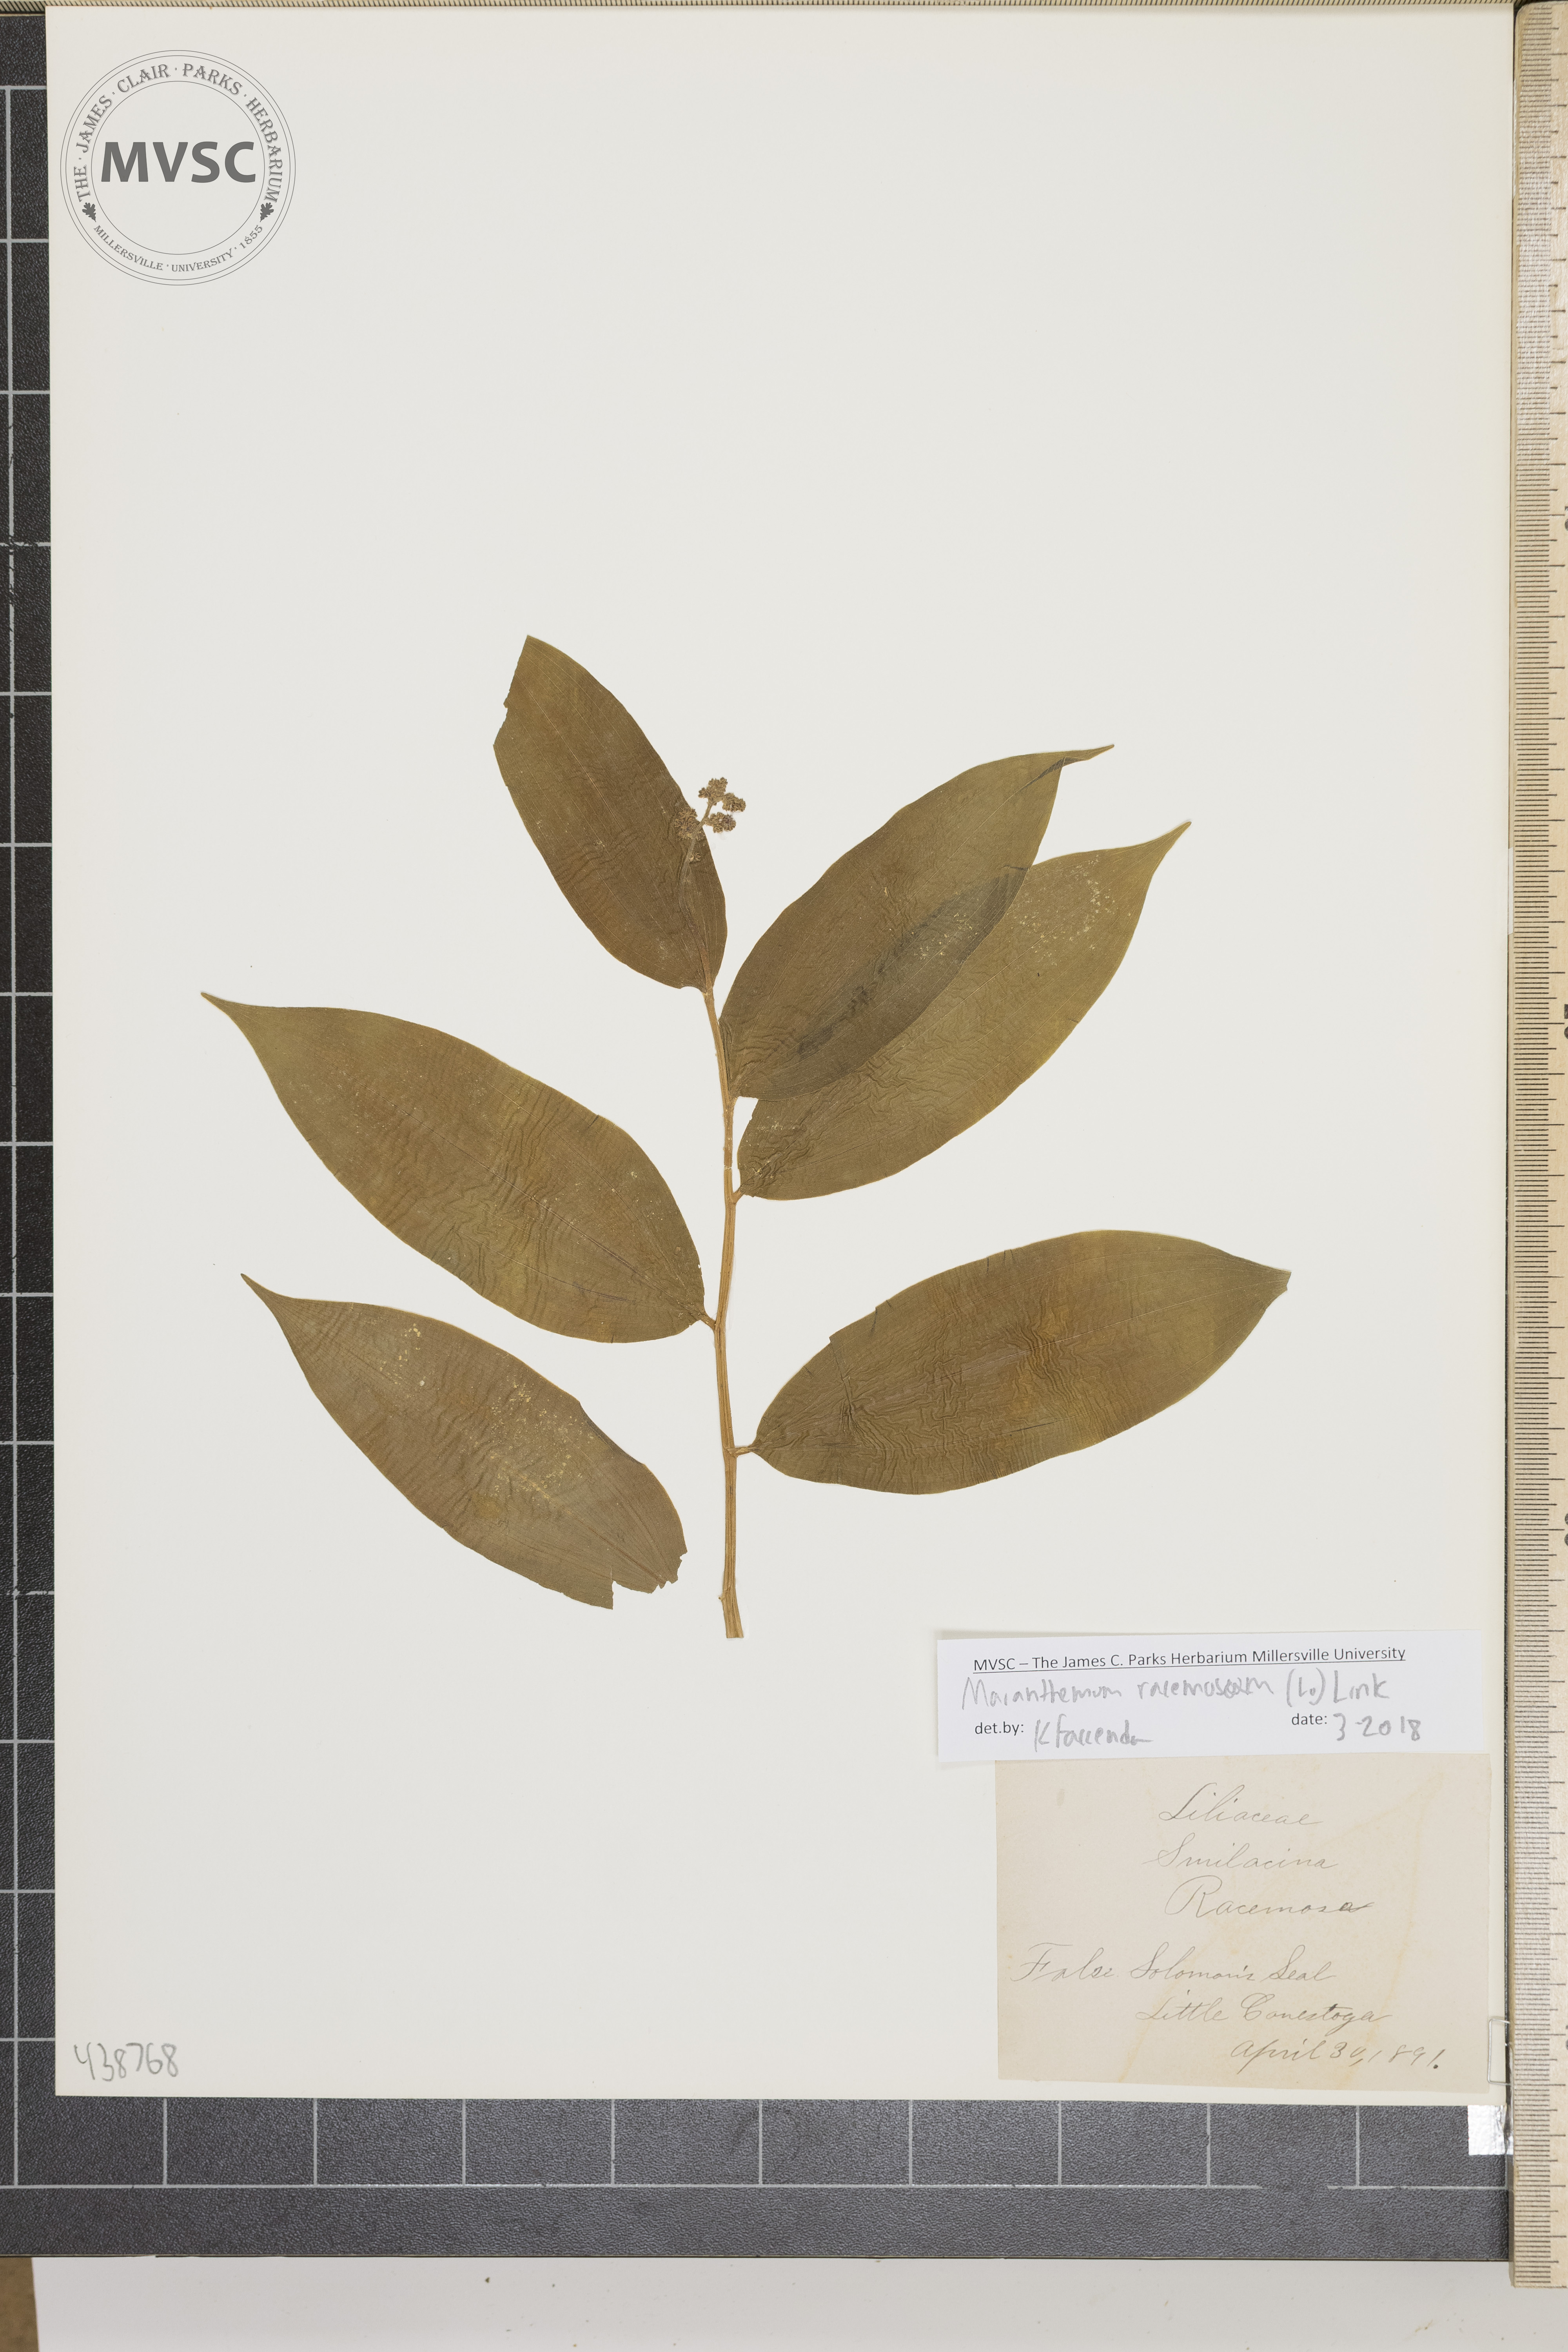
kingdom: Plantae
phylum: Tracheophyta
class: Liliopsida
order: Asparagales
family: Asparagaceae
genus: Maianthemum
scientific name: Maianthemum racemosum
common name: False solomon's seal
